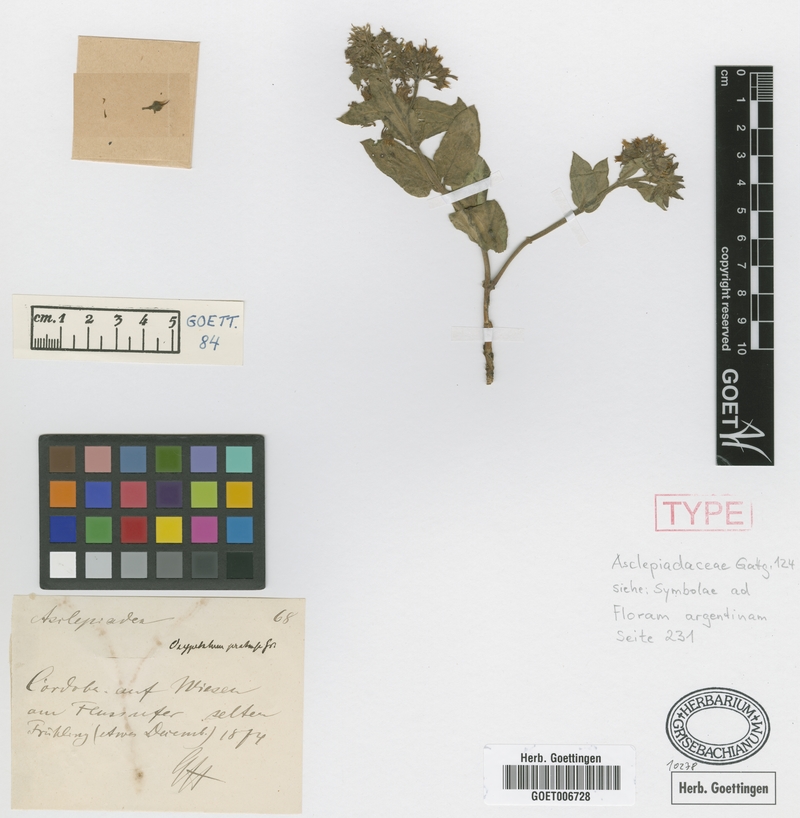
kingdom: Plantae
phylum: Tracheophyta
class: Magnoliopsida
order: Gentianales
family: Apocynaceae
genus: Oxypetalum
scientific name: Oxypetalum crispum
